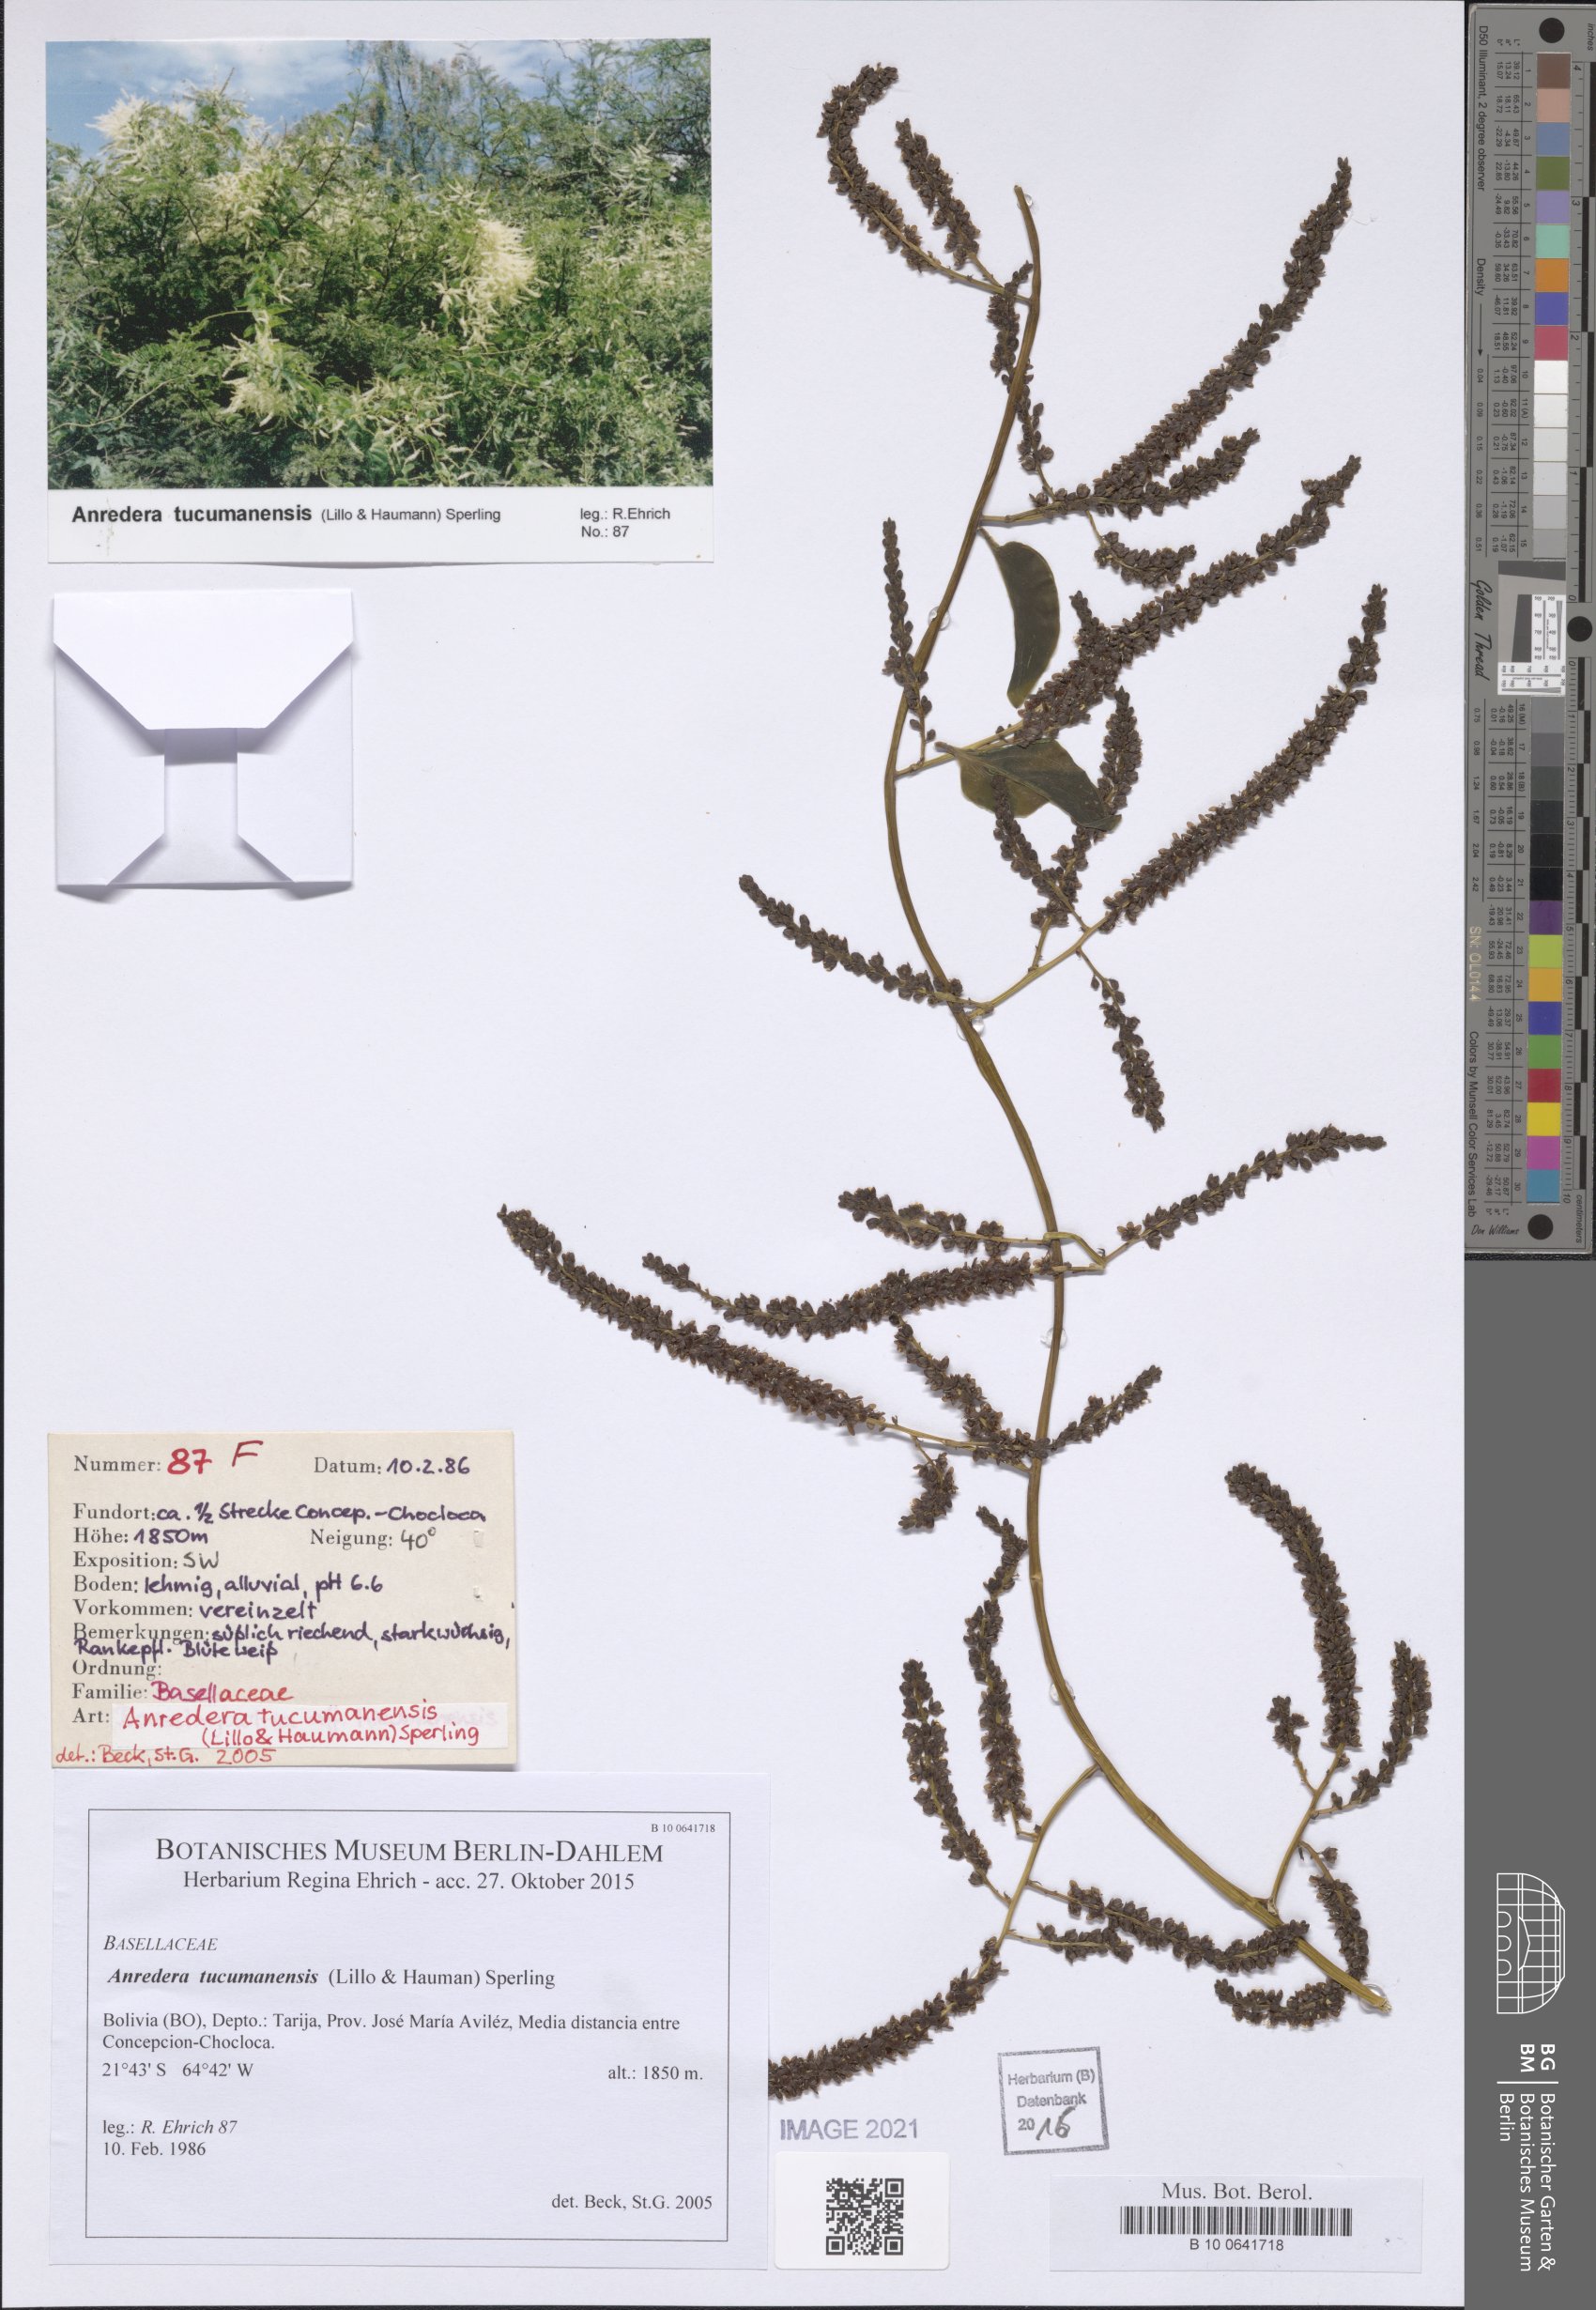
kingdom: Plantae
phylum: Tracheophyta
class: Magnoliopsida
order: Caryophyllales
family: Basellaceae
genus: Anredera
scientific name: Anredera tucumanensis
